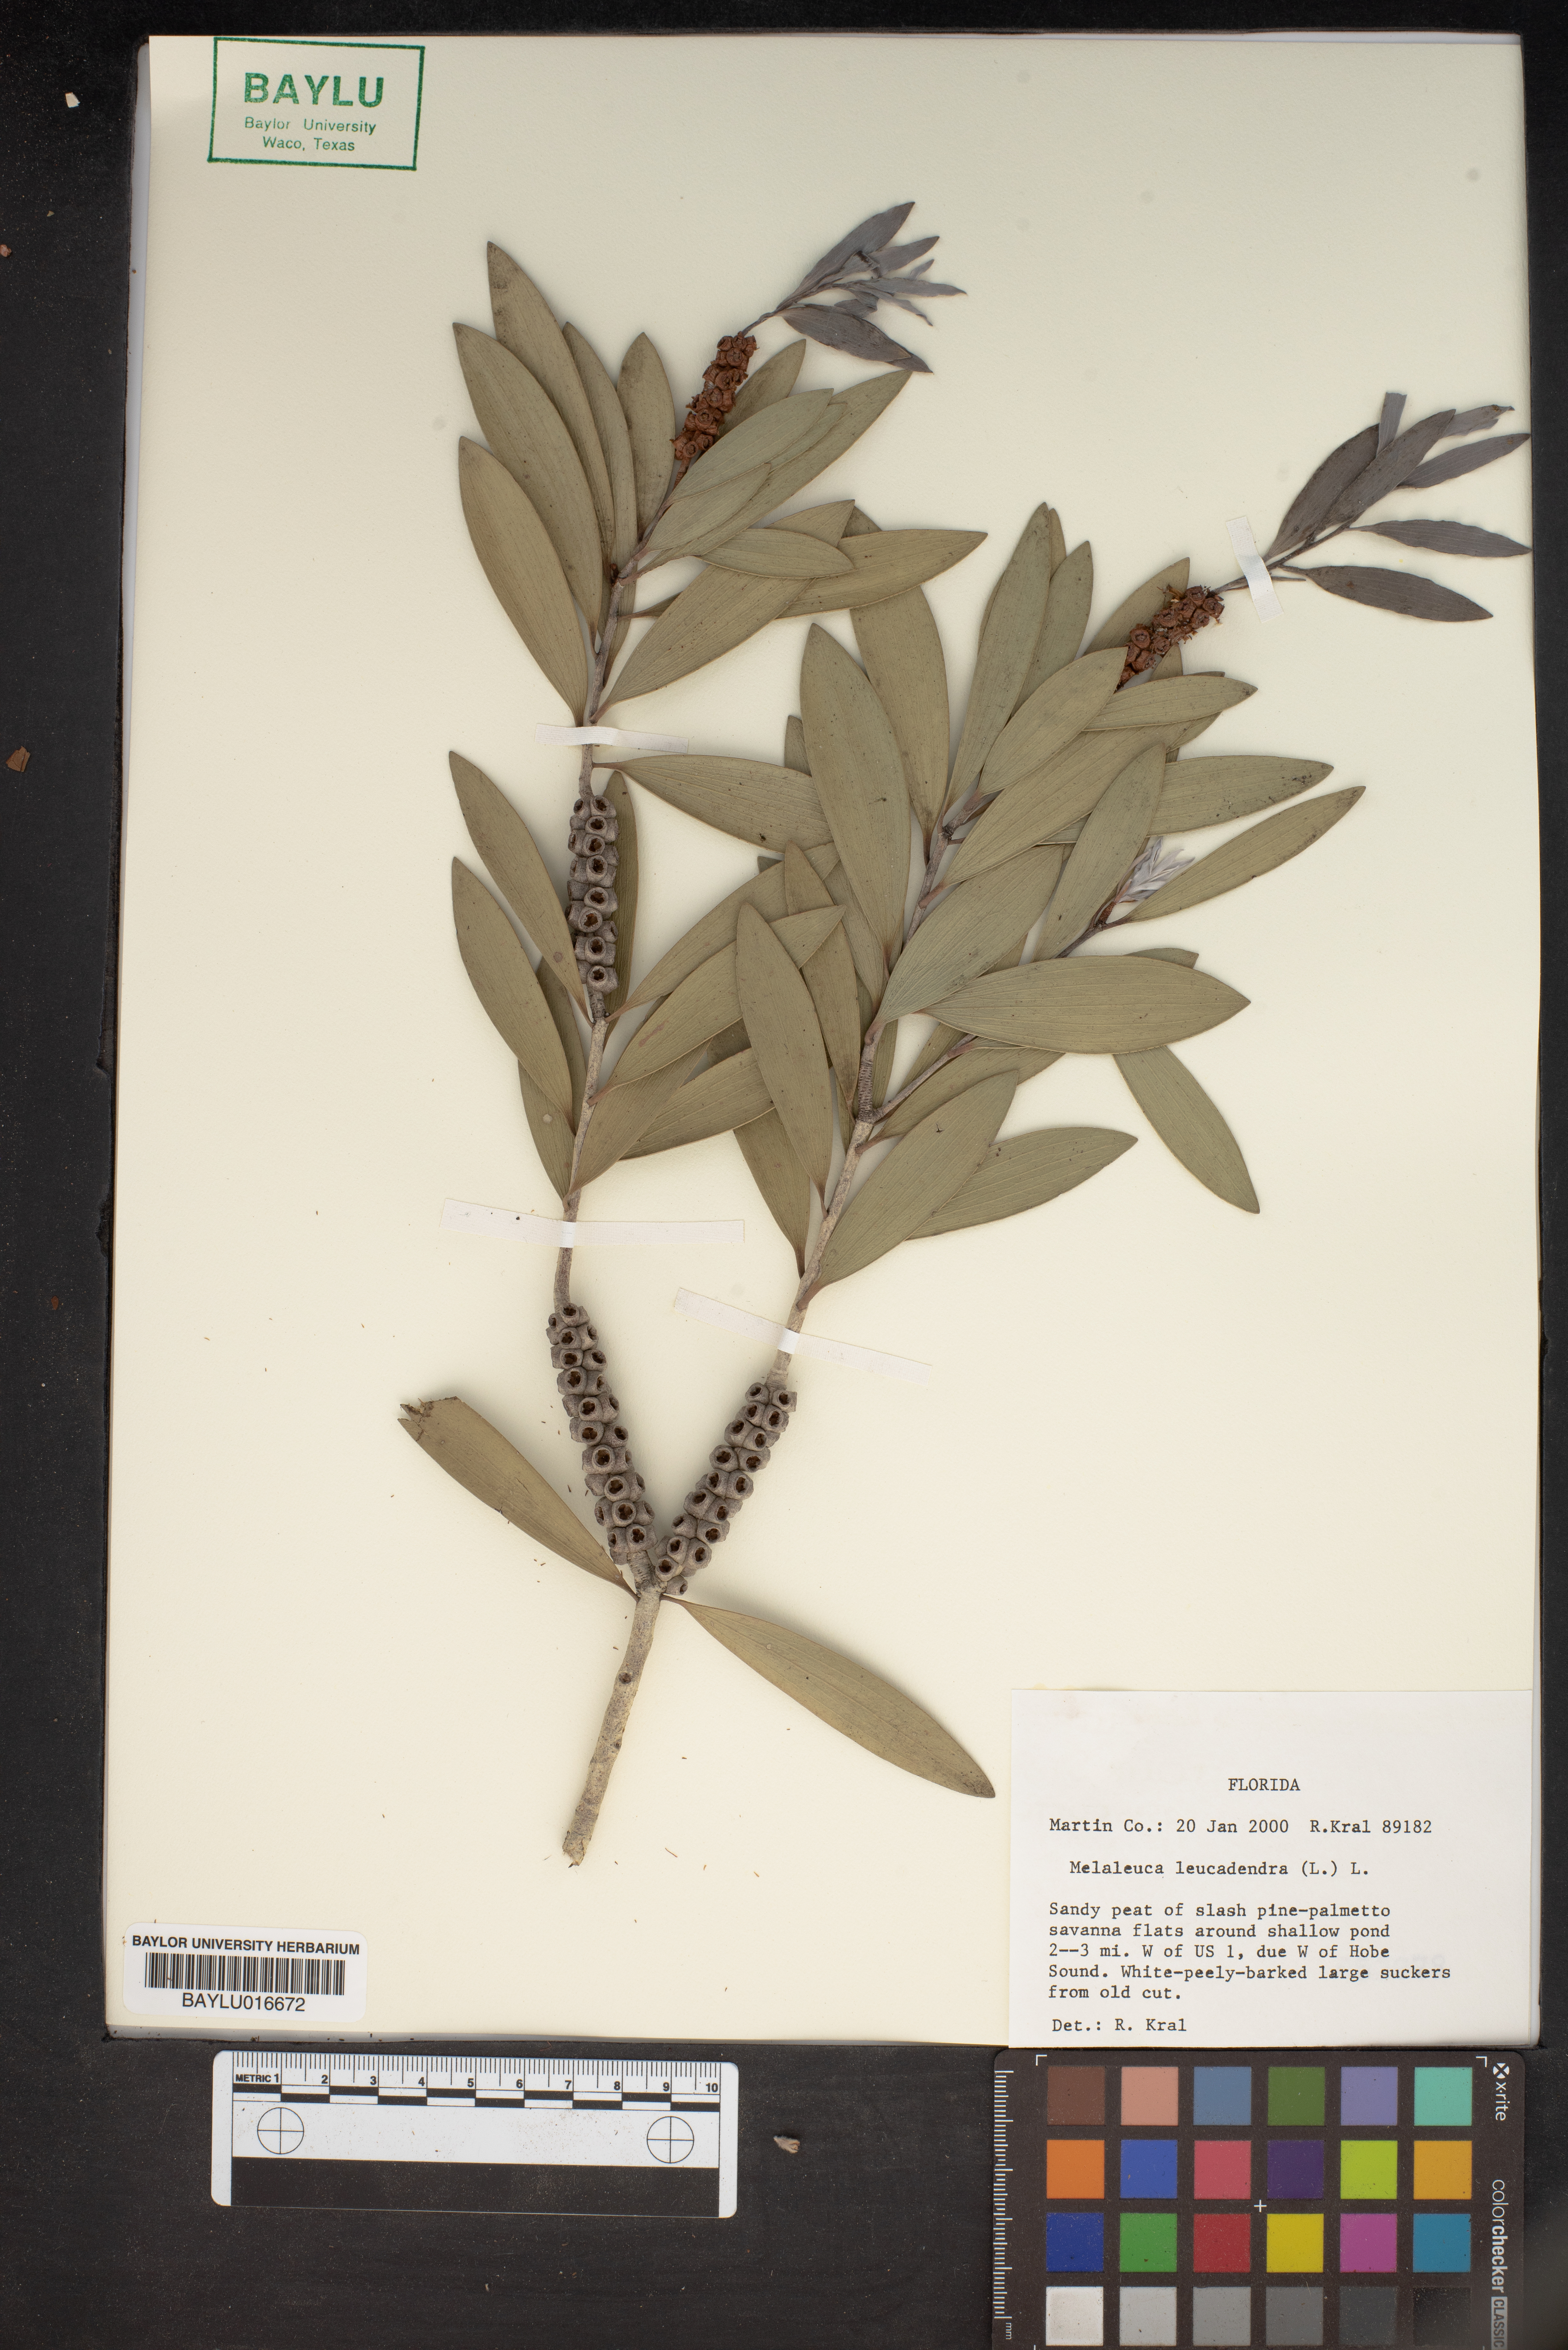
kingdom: Plantae
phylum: Tracheophyta
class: Magnoliopsida
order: Myrtales
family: Myrtaceae
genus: Melaleuca
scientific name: Melaleuca leucadendra
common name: Weeping paperbark
